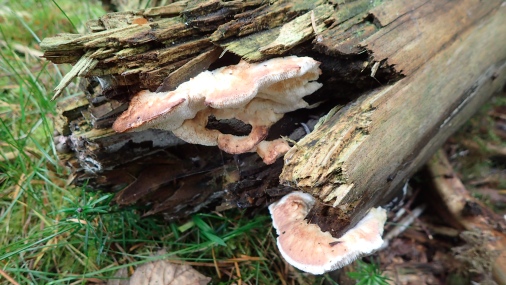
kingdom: Fungi
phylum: Basidiomycota
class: Agaricomycetes
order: Polyporales
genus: Fuscopostia
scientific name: Fuscopostia fragilis
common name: brunende kødporesvamp
